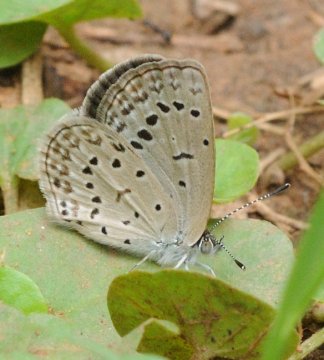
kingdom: Animalia
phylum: Arthropoda
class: Insecta
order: Lepidoptera
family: Lycaenidae
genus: Zizina
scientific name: Zizina
